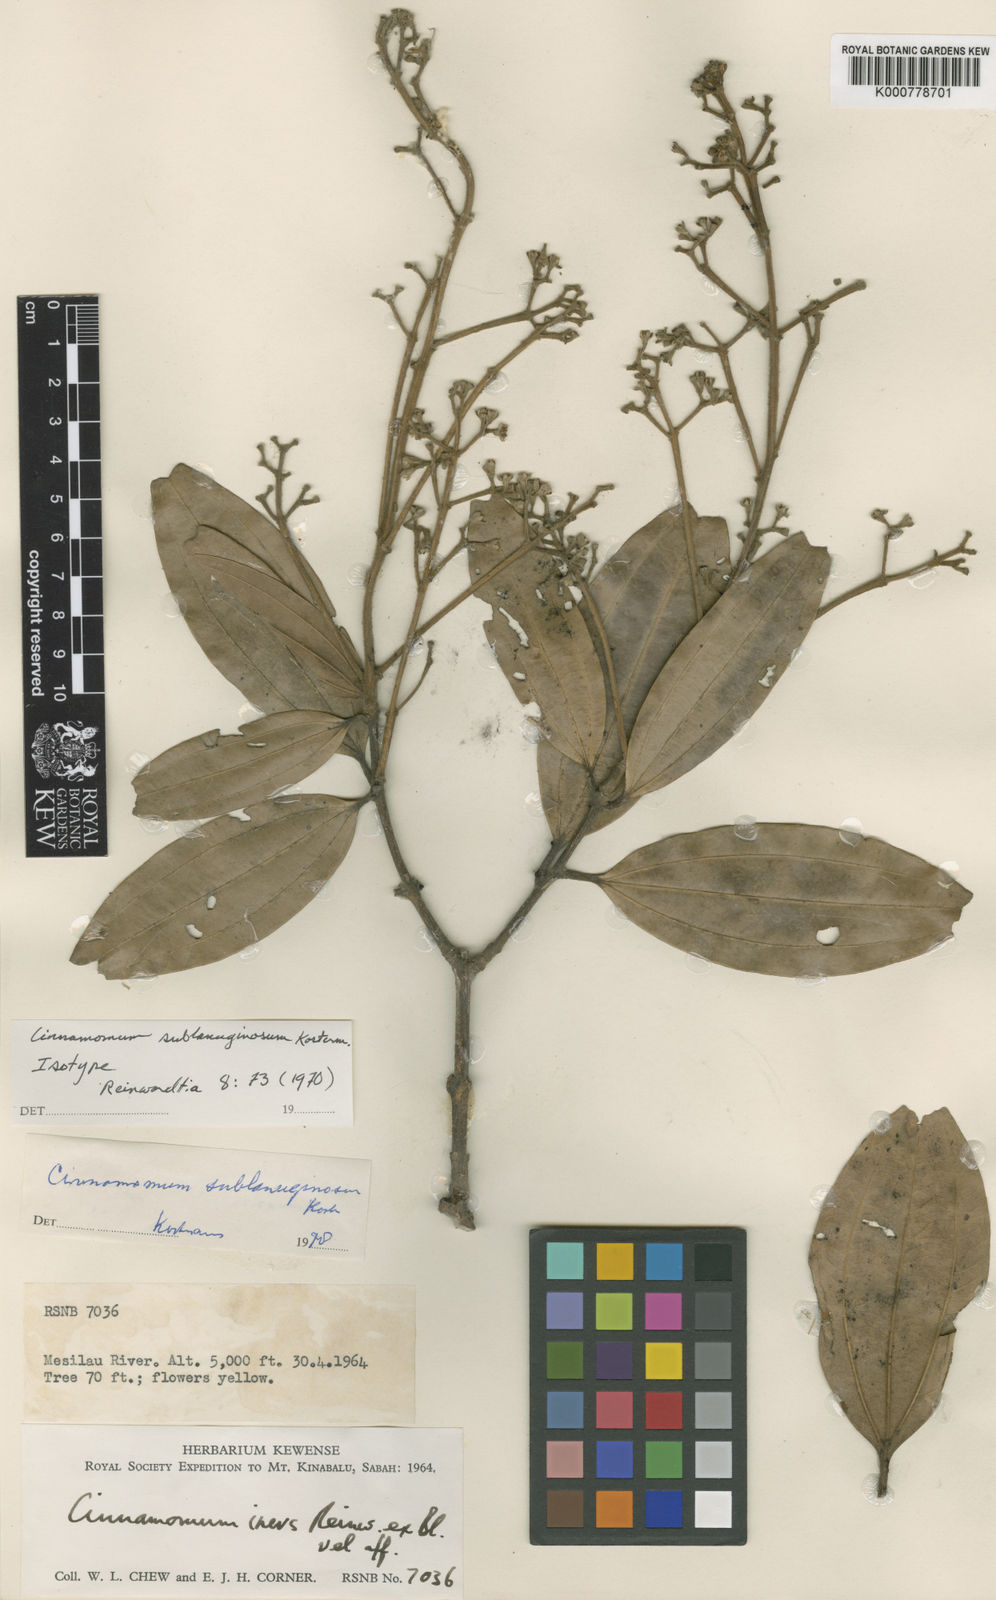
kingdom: Plantae
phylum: Tracheophyta
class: Magnoliopsida
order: Laurales
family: Lauraceae
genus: Cinnamomum
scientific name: Cinnamomum sublanuginosum
